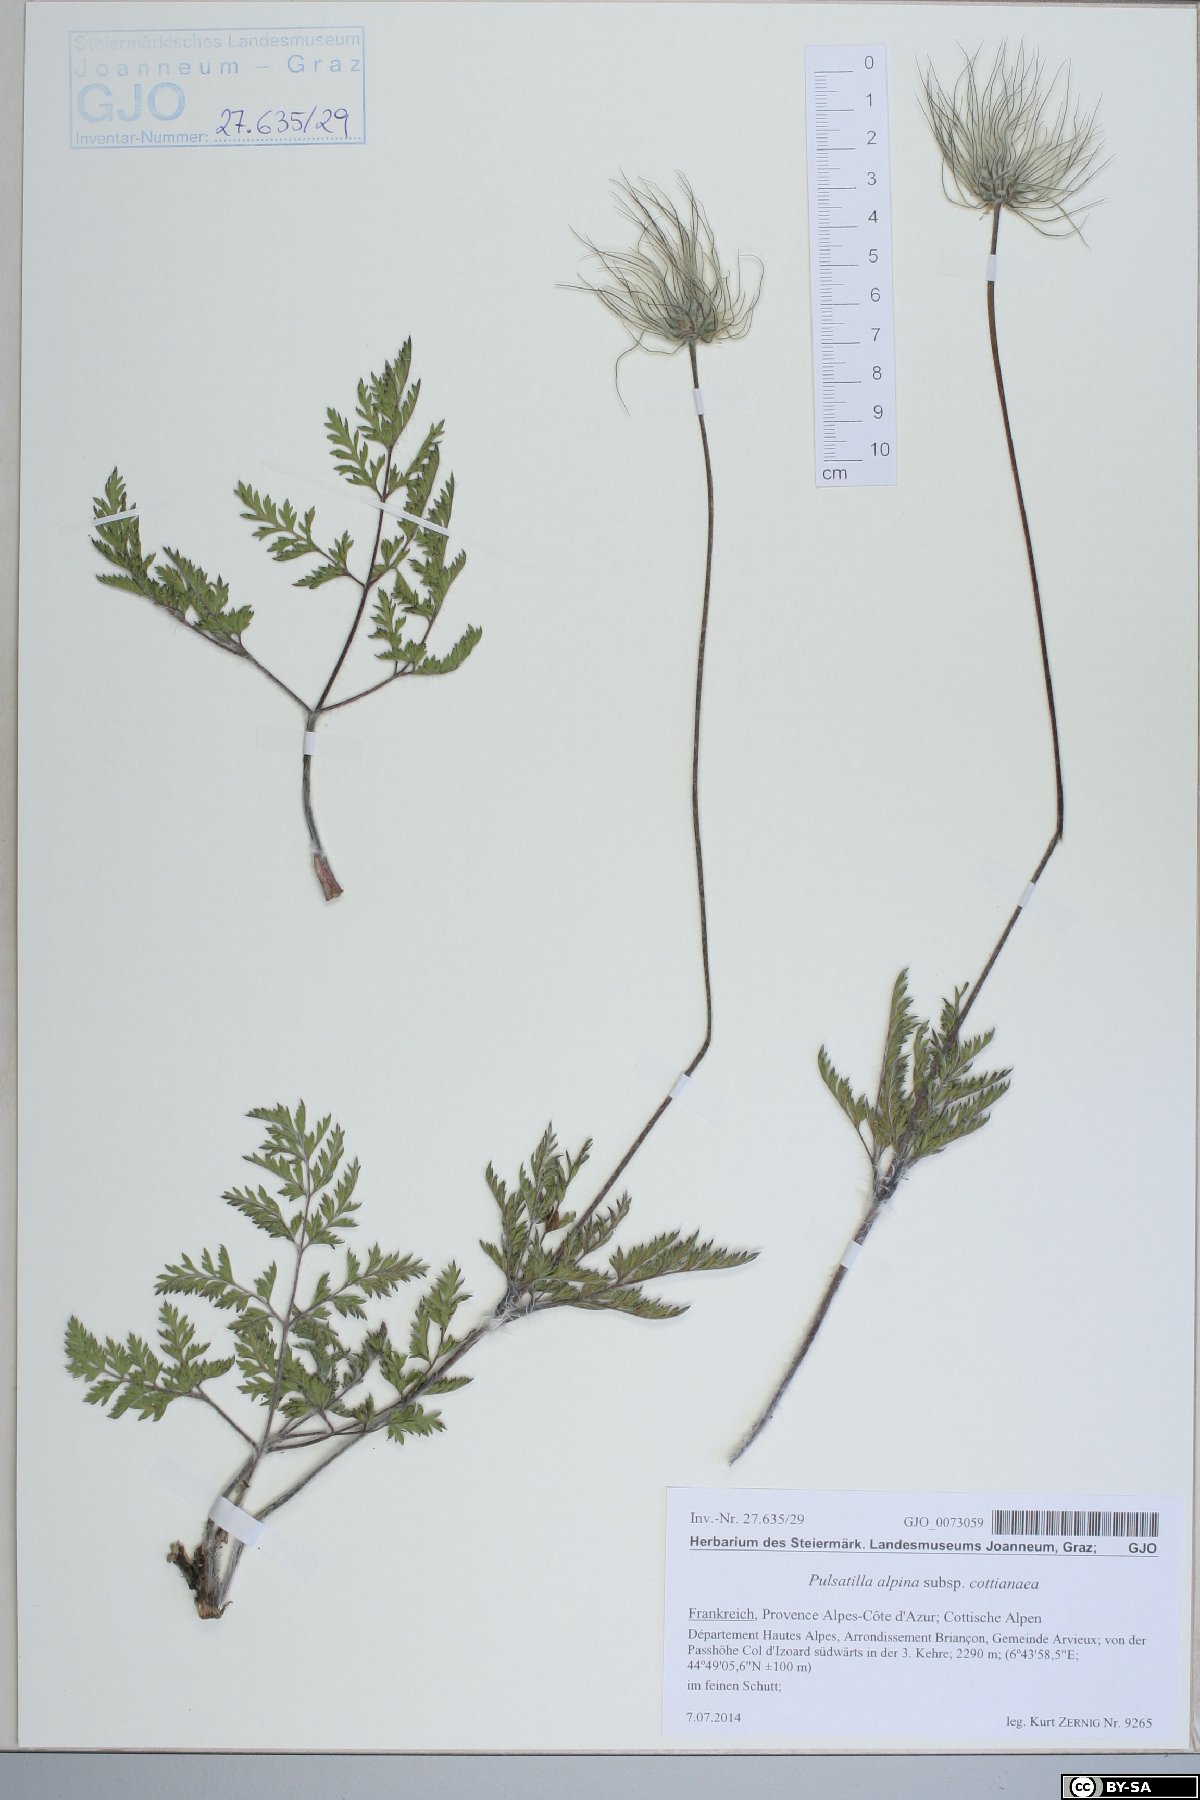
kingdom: Plantae
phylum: Tracheophyta
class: Magnoliopsida
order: Ranunculales
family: Ranunculaceae
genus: Pulsatilla
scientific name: Pulsatilla alpina
